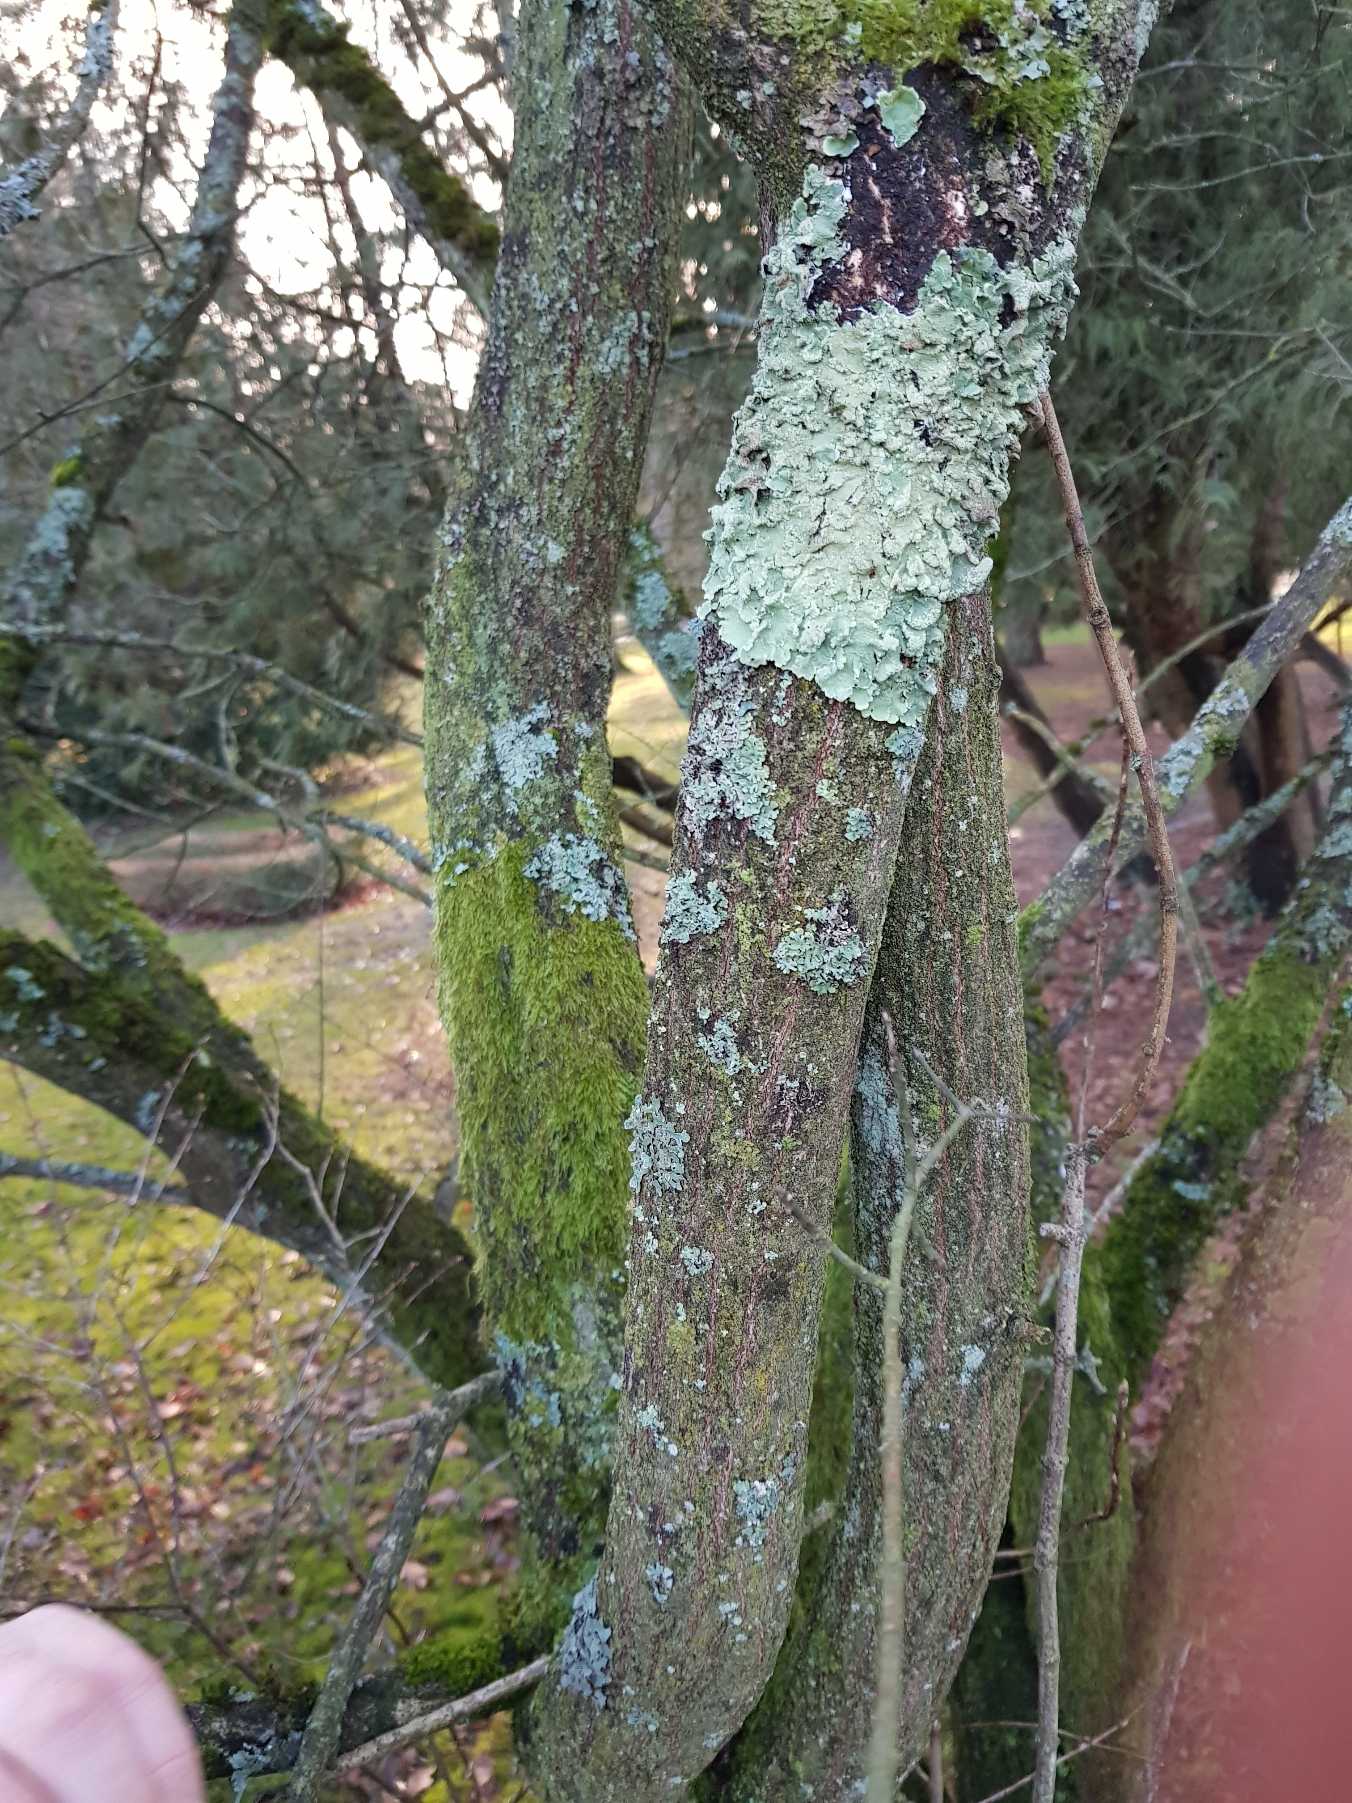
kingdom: Fungi
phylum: Ascomycota
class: Lecanoromycetes
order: Lecanorales
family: Parmeliaceae
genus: Flavoparmelia
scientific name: Flavoparmelia caperata
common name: Gulgrøn skållav
